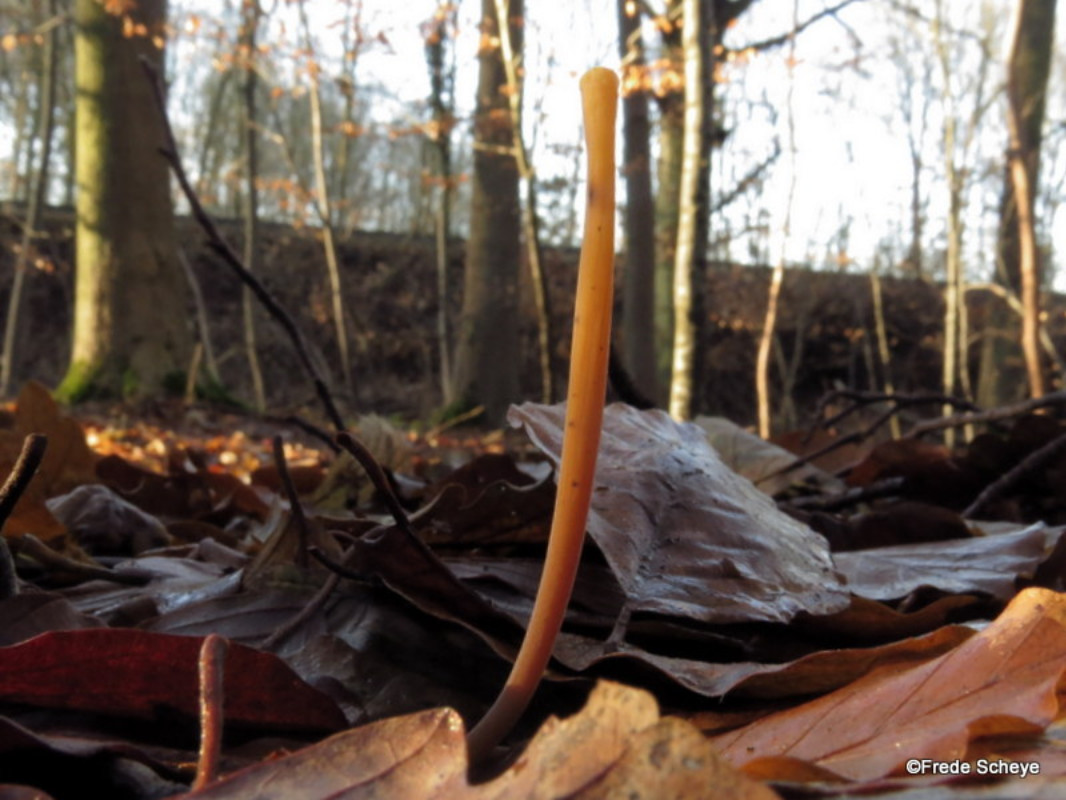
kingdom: Fungi
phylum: Basidiomycota
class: Agaricomycetes
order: Agaricales
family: Typhulaceae
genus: Typhula
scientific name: Typhula fistulosa
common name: pibet rørkølle
